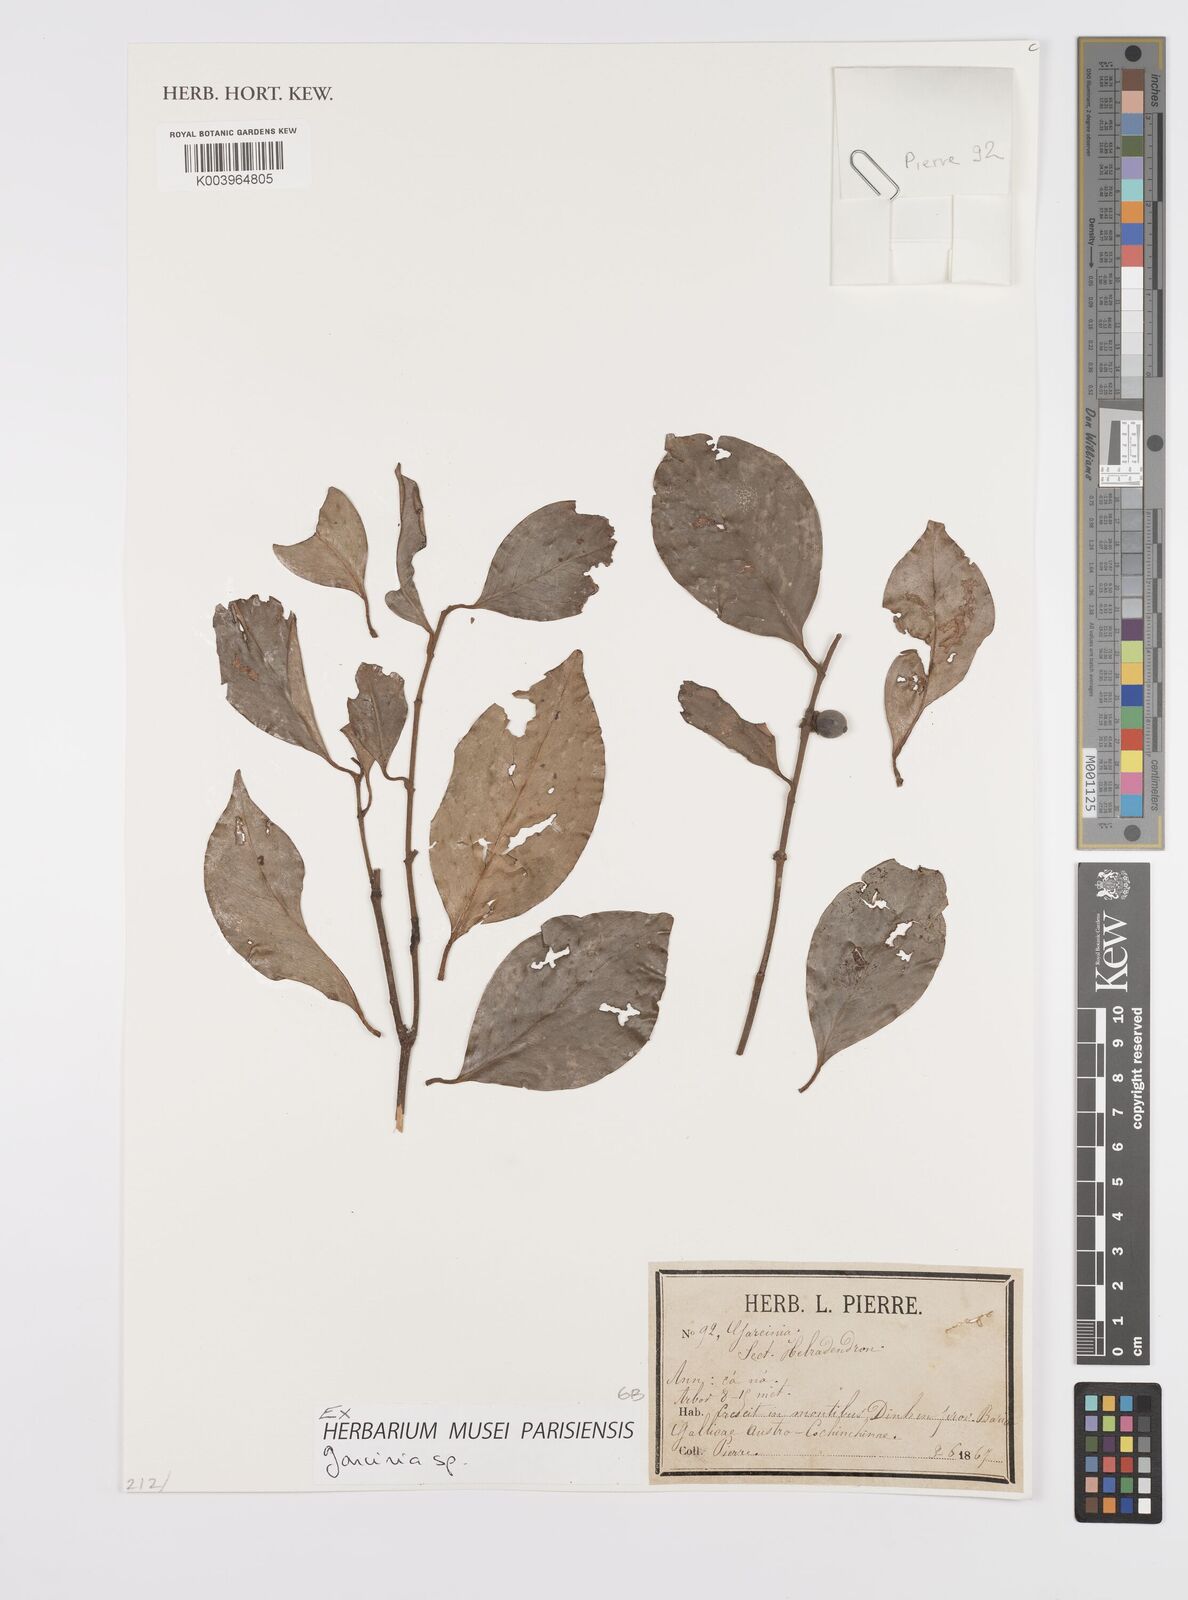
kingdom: Plantae
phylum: Tracheophyta
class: Magnoliopsida
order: Malpighiales
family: Clusiaceae
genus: Garcinia
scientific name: Garcinia
